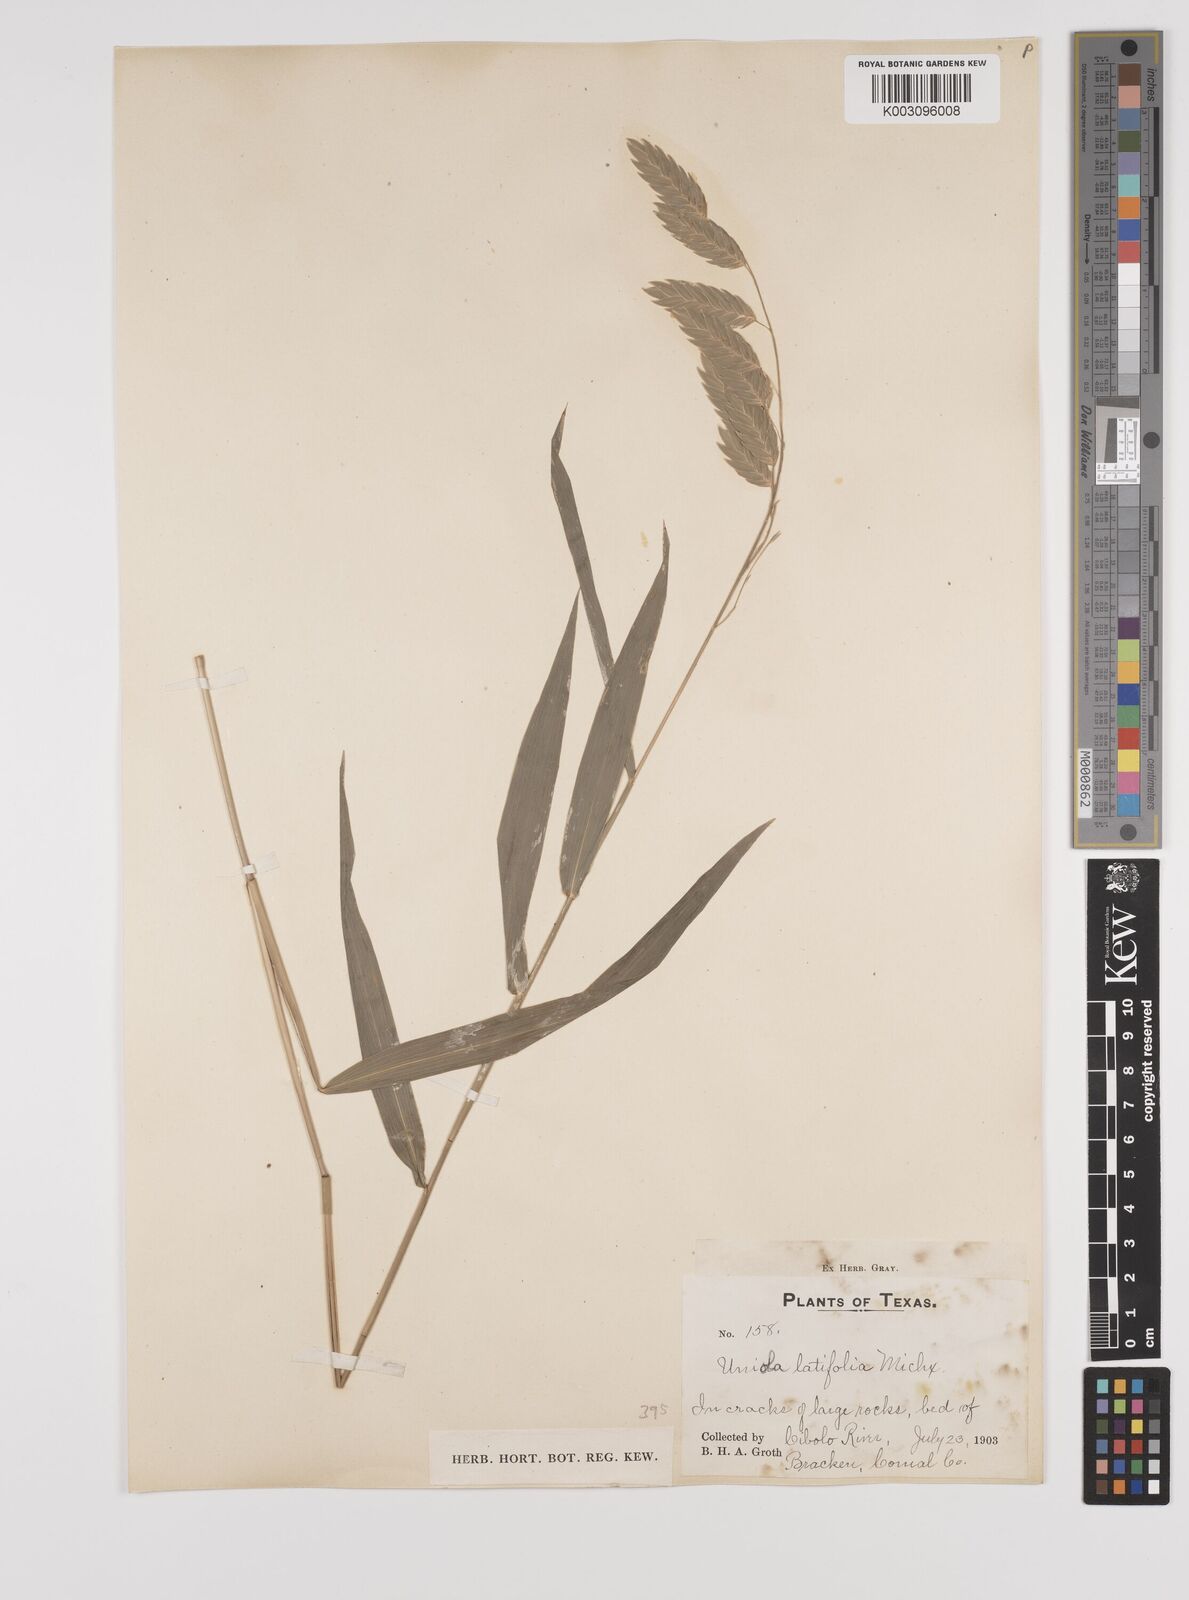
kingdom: Plantae
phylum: Tracheophyta
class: Liliopsida
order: Poales
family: Poaceae
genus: Chasmanthium
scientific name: Chasmanthium latifolium
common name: Broad-leaved chasmanthium
